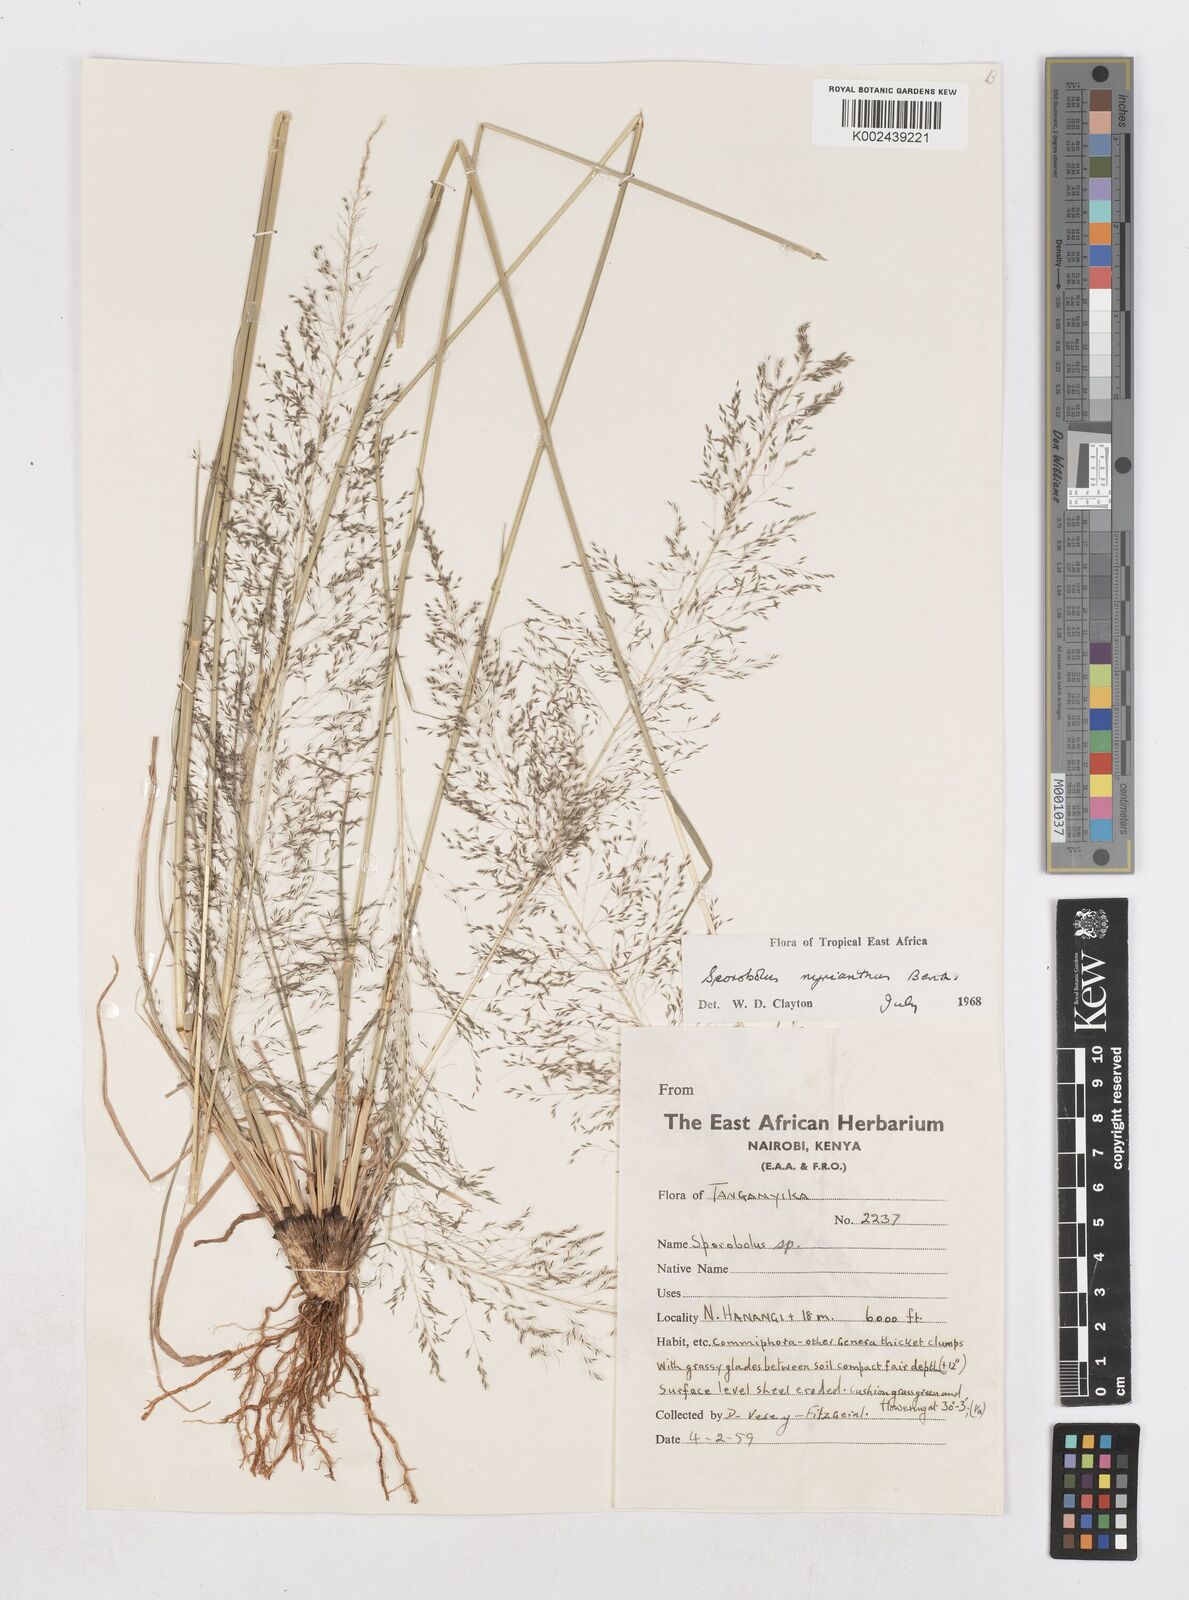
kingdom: Plantae
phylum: Tracheophyta
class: Liliopsida
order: Poales
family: Poaceae
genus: Sporobolus
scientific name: Sporobolus myrianthus
